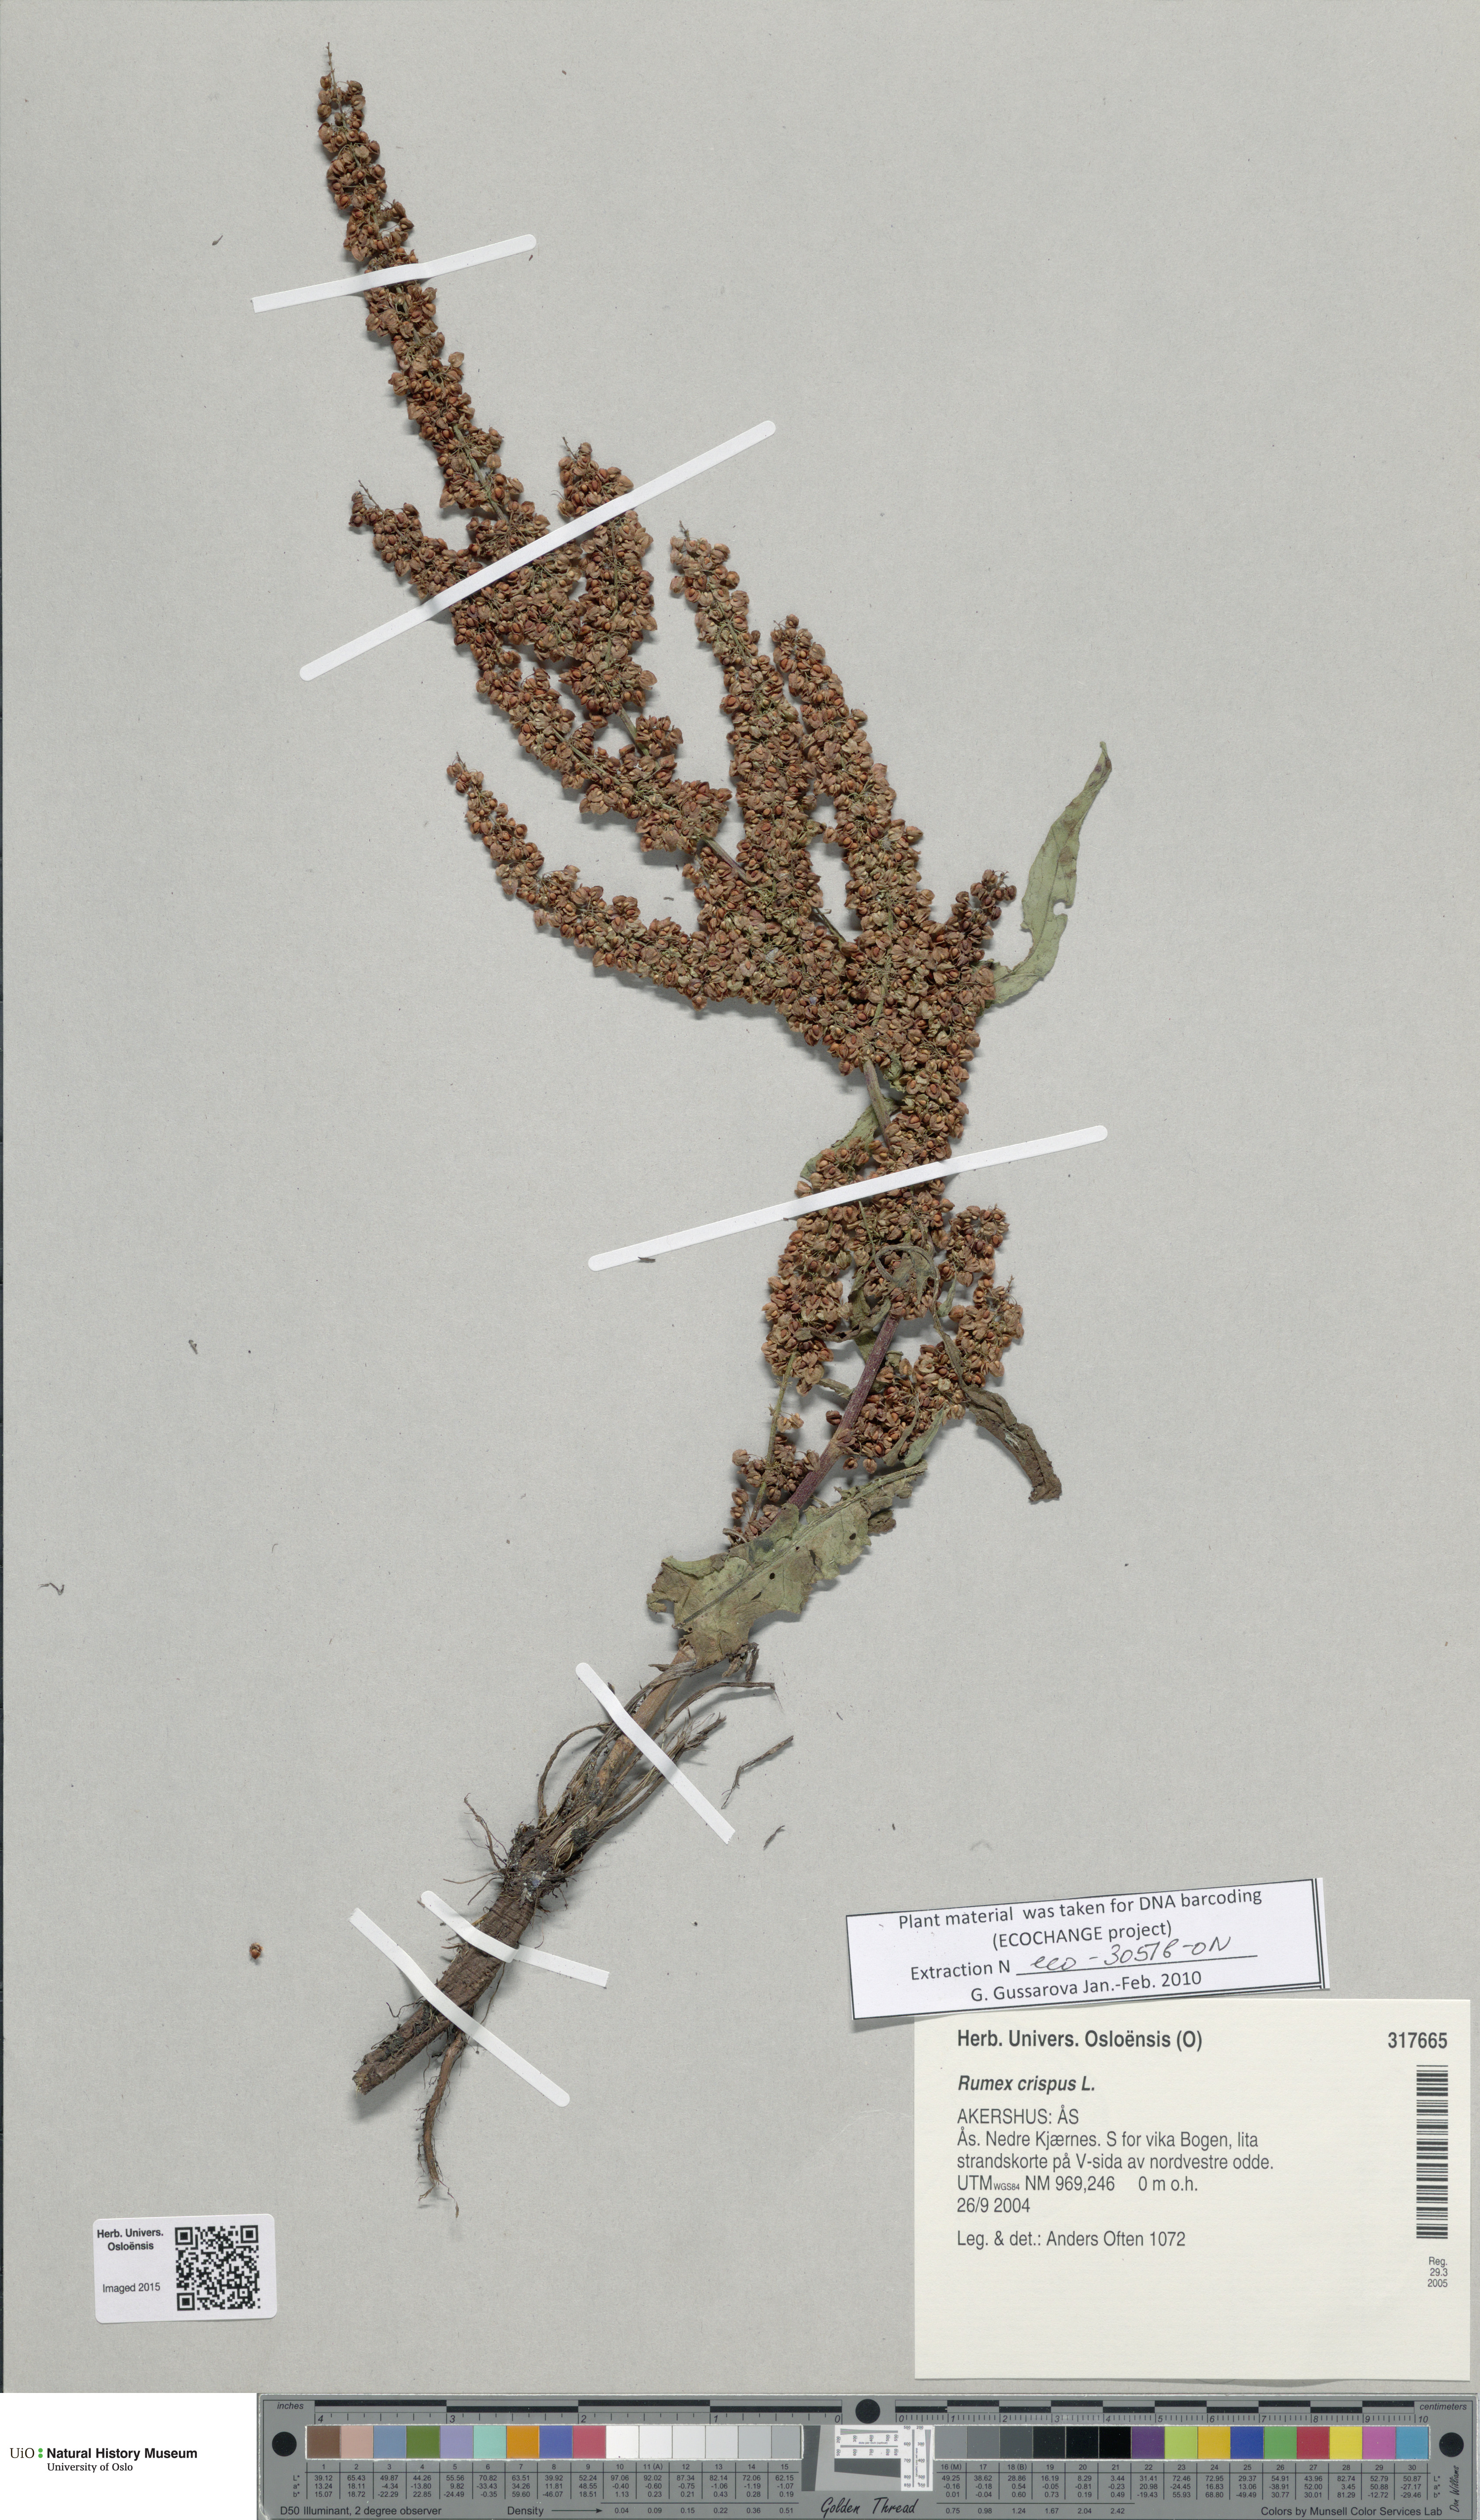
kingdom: Plantae
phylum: Tracheophyta
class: Magnoliopsida
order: Caryophyllales
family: Polygonaceae
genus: Rumex
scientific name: Rumex crispus
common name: Curled dock
